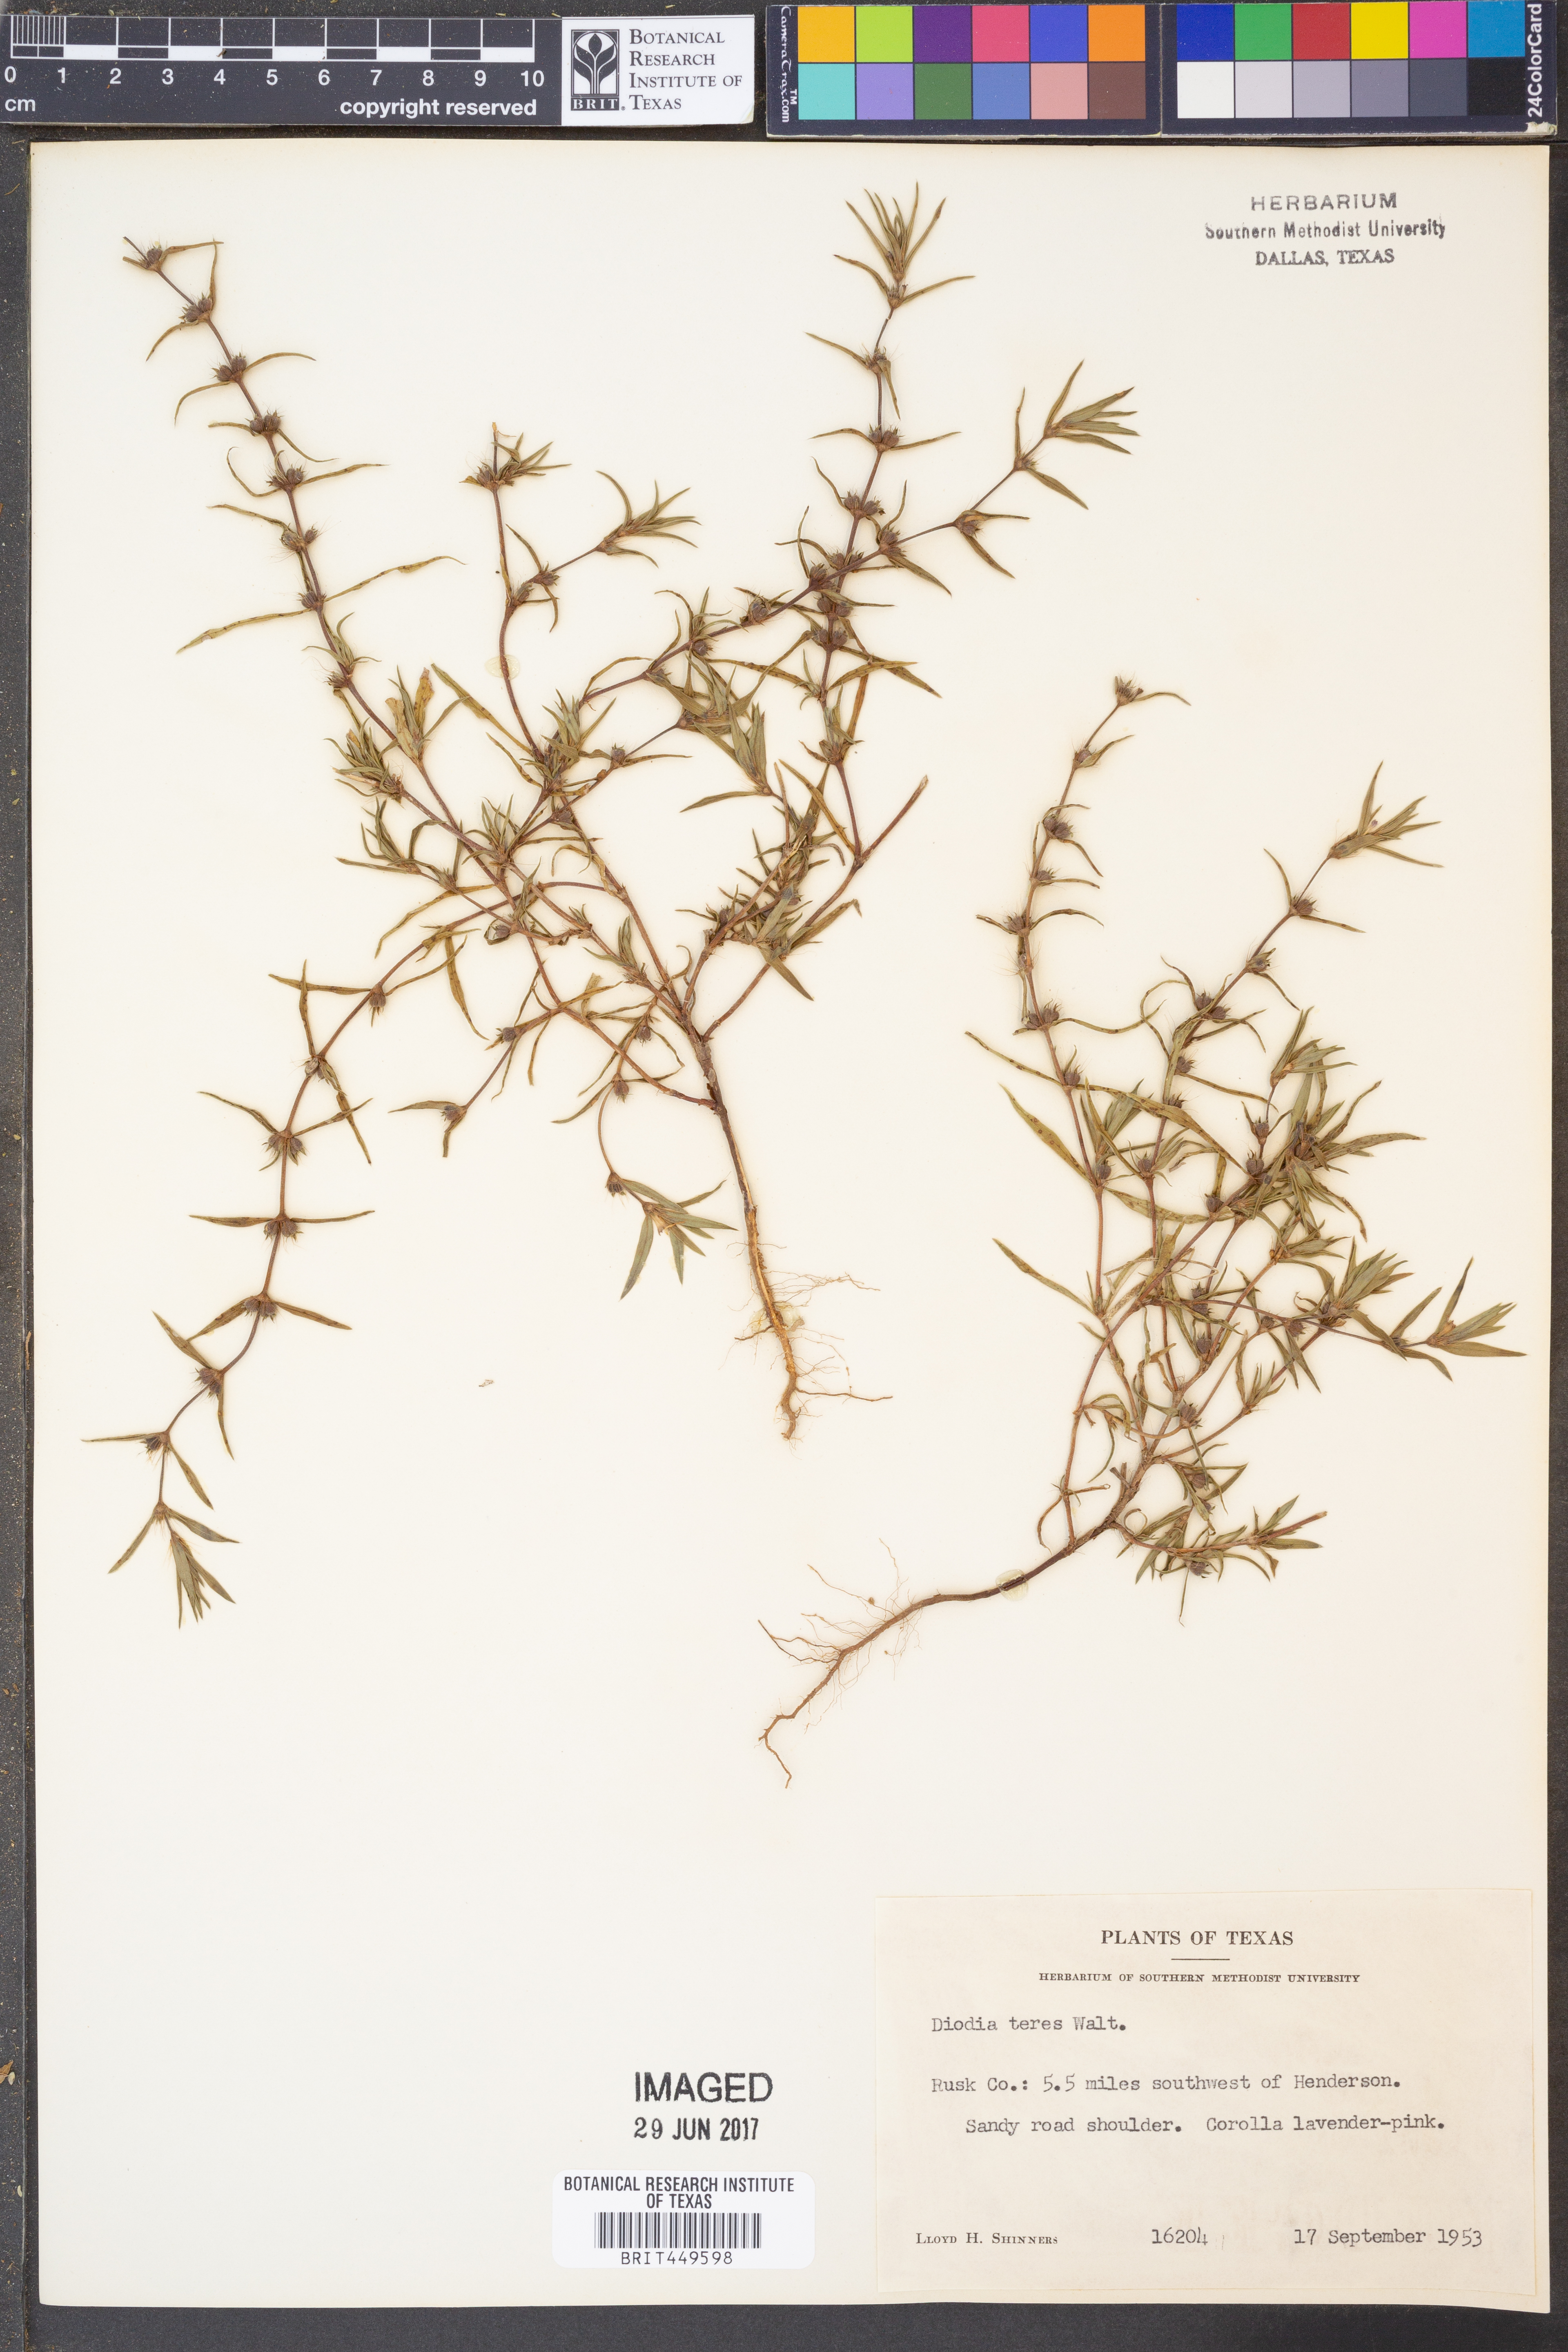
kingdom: Plantae
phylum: Tracheophyta
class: Magnoliopsida
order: Gentianales
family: Rubiaceae
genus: Hexasepalum
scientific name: Hexasepalum teres
